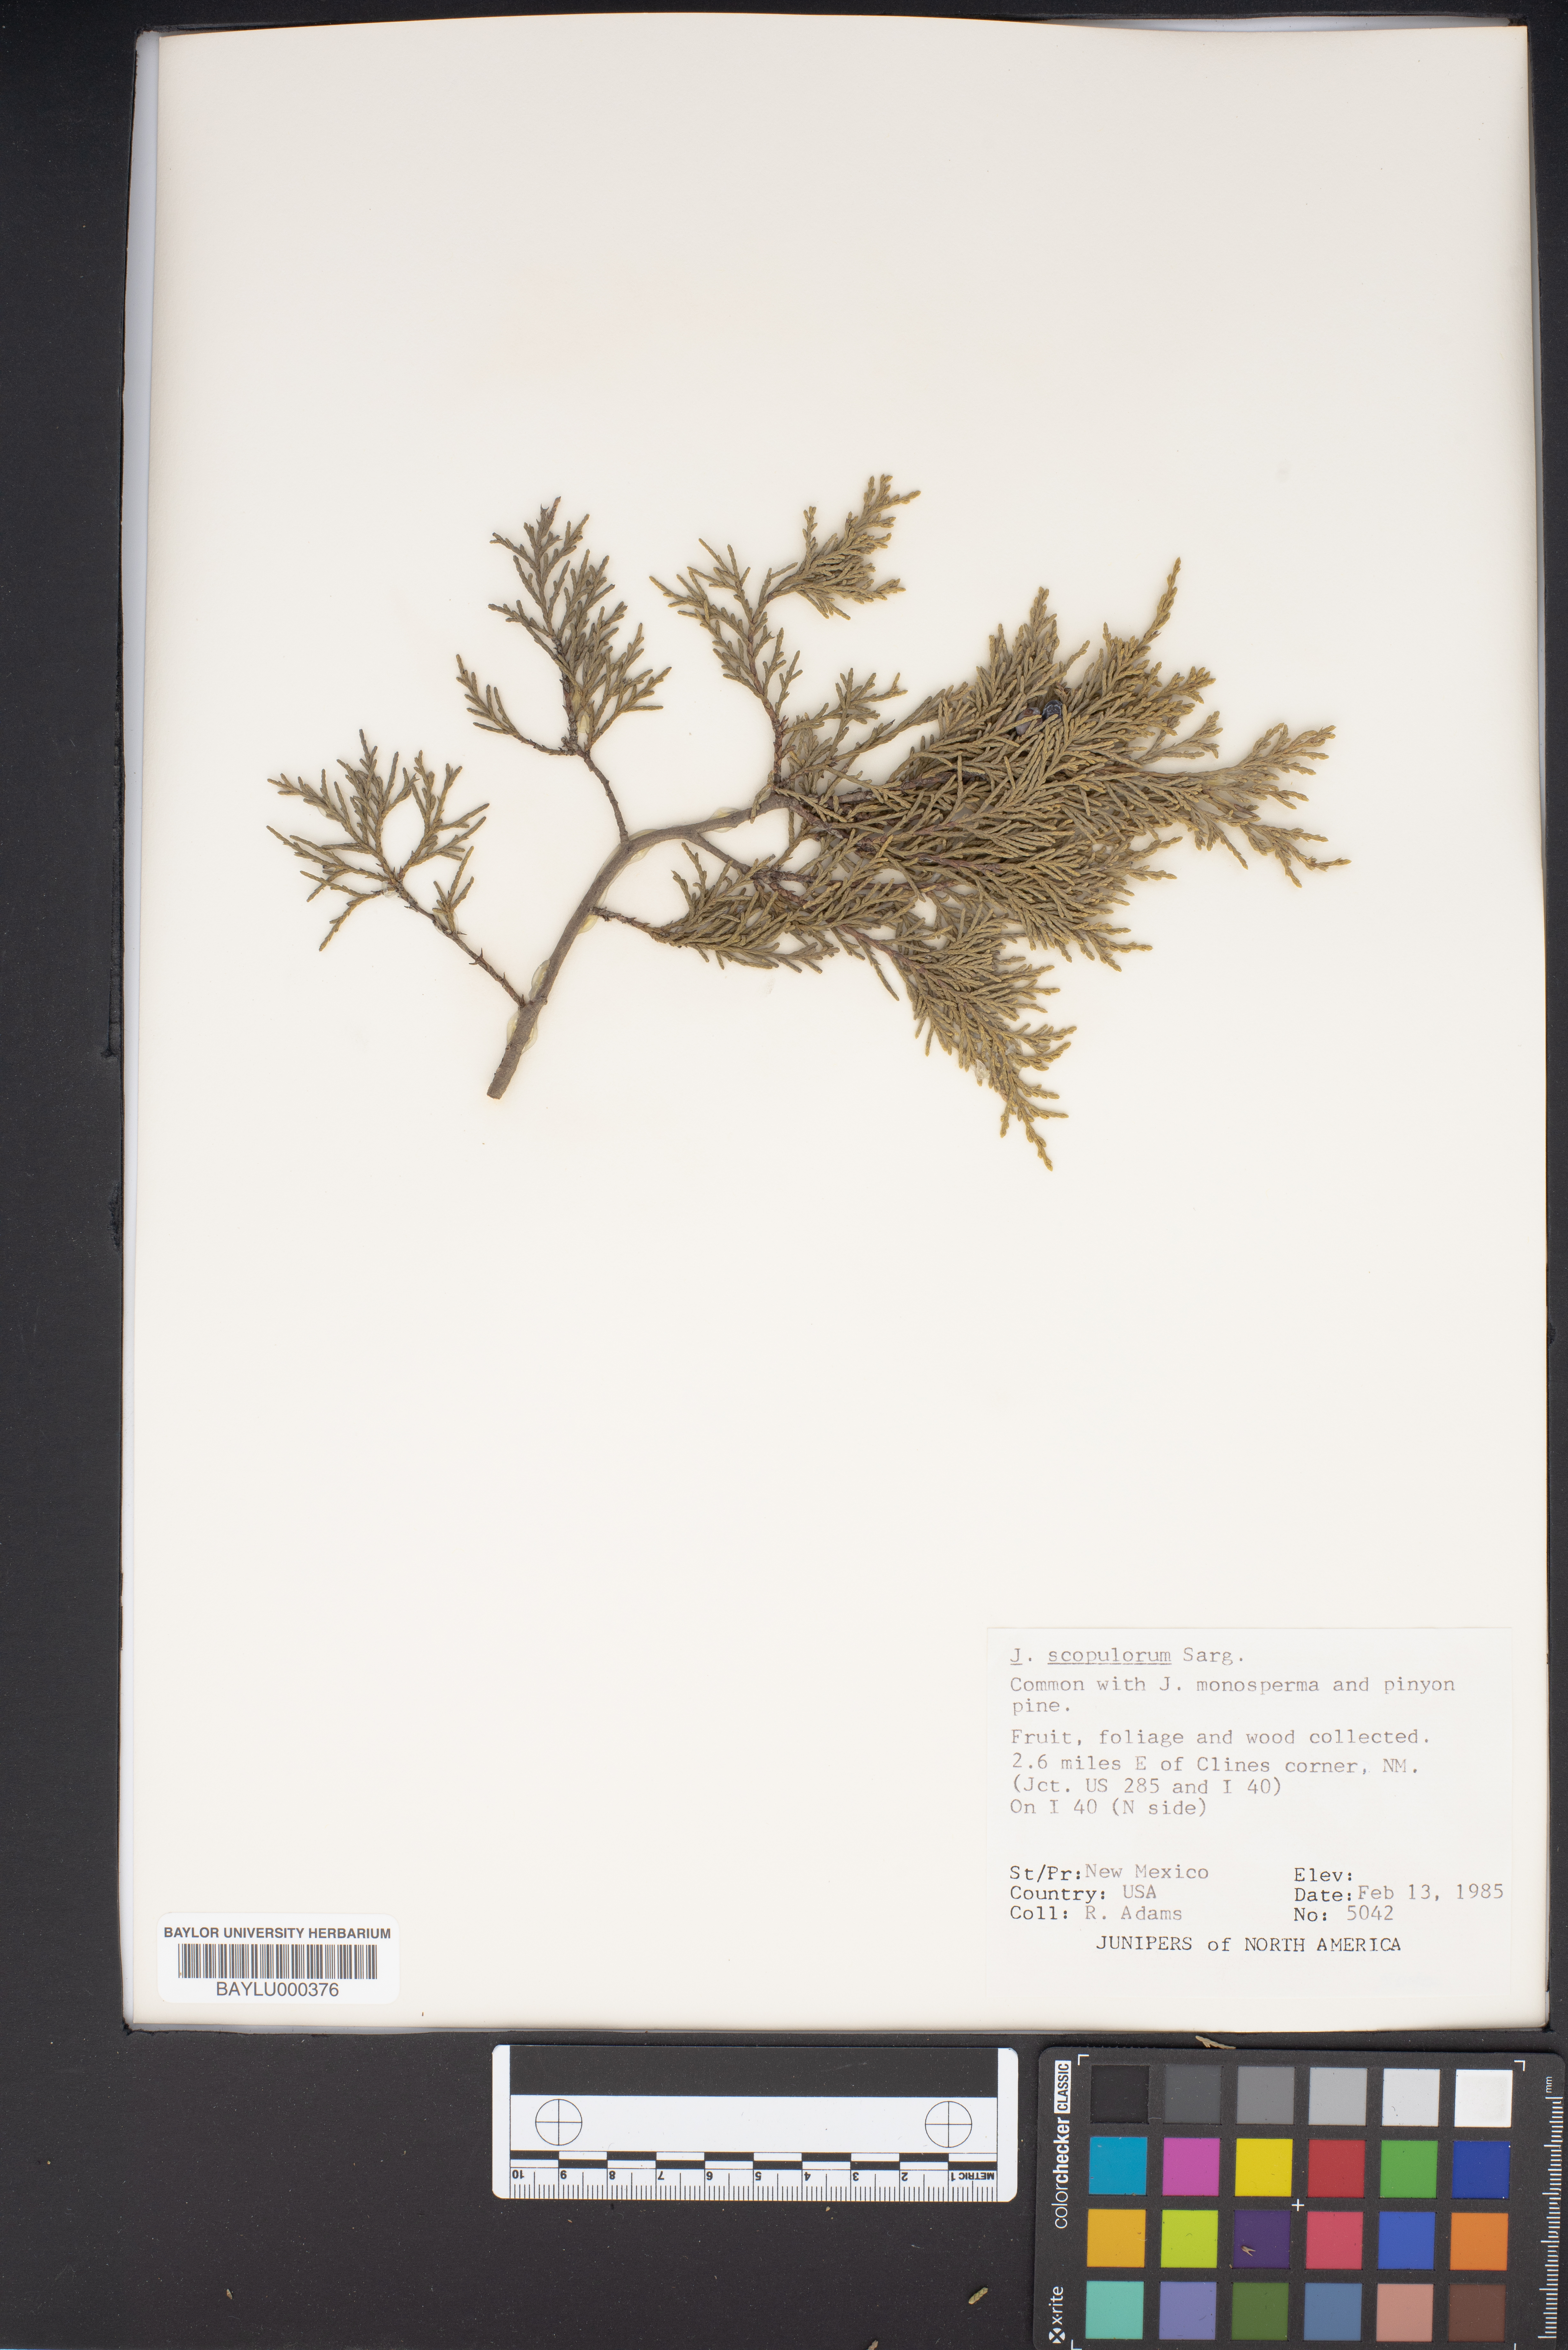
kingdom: Plantae
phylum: Tracheophyta
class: Pinopsida
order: Pinales
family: Cupressaceae
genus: Juniperus
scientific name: Juniperus scopulorum
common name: Rocky mountain juniper
